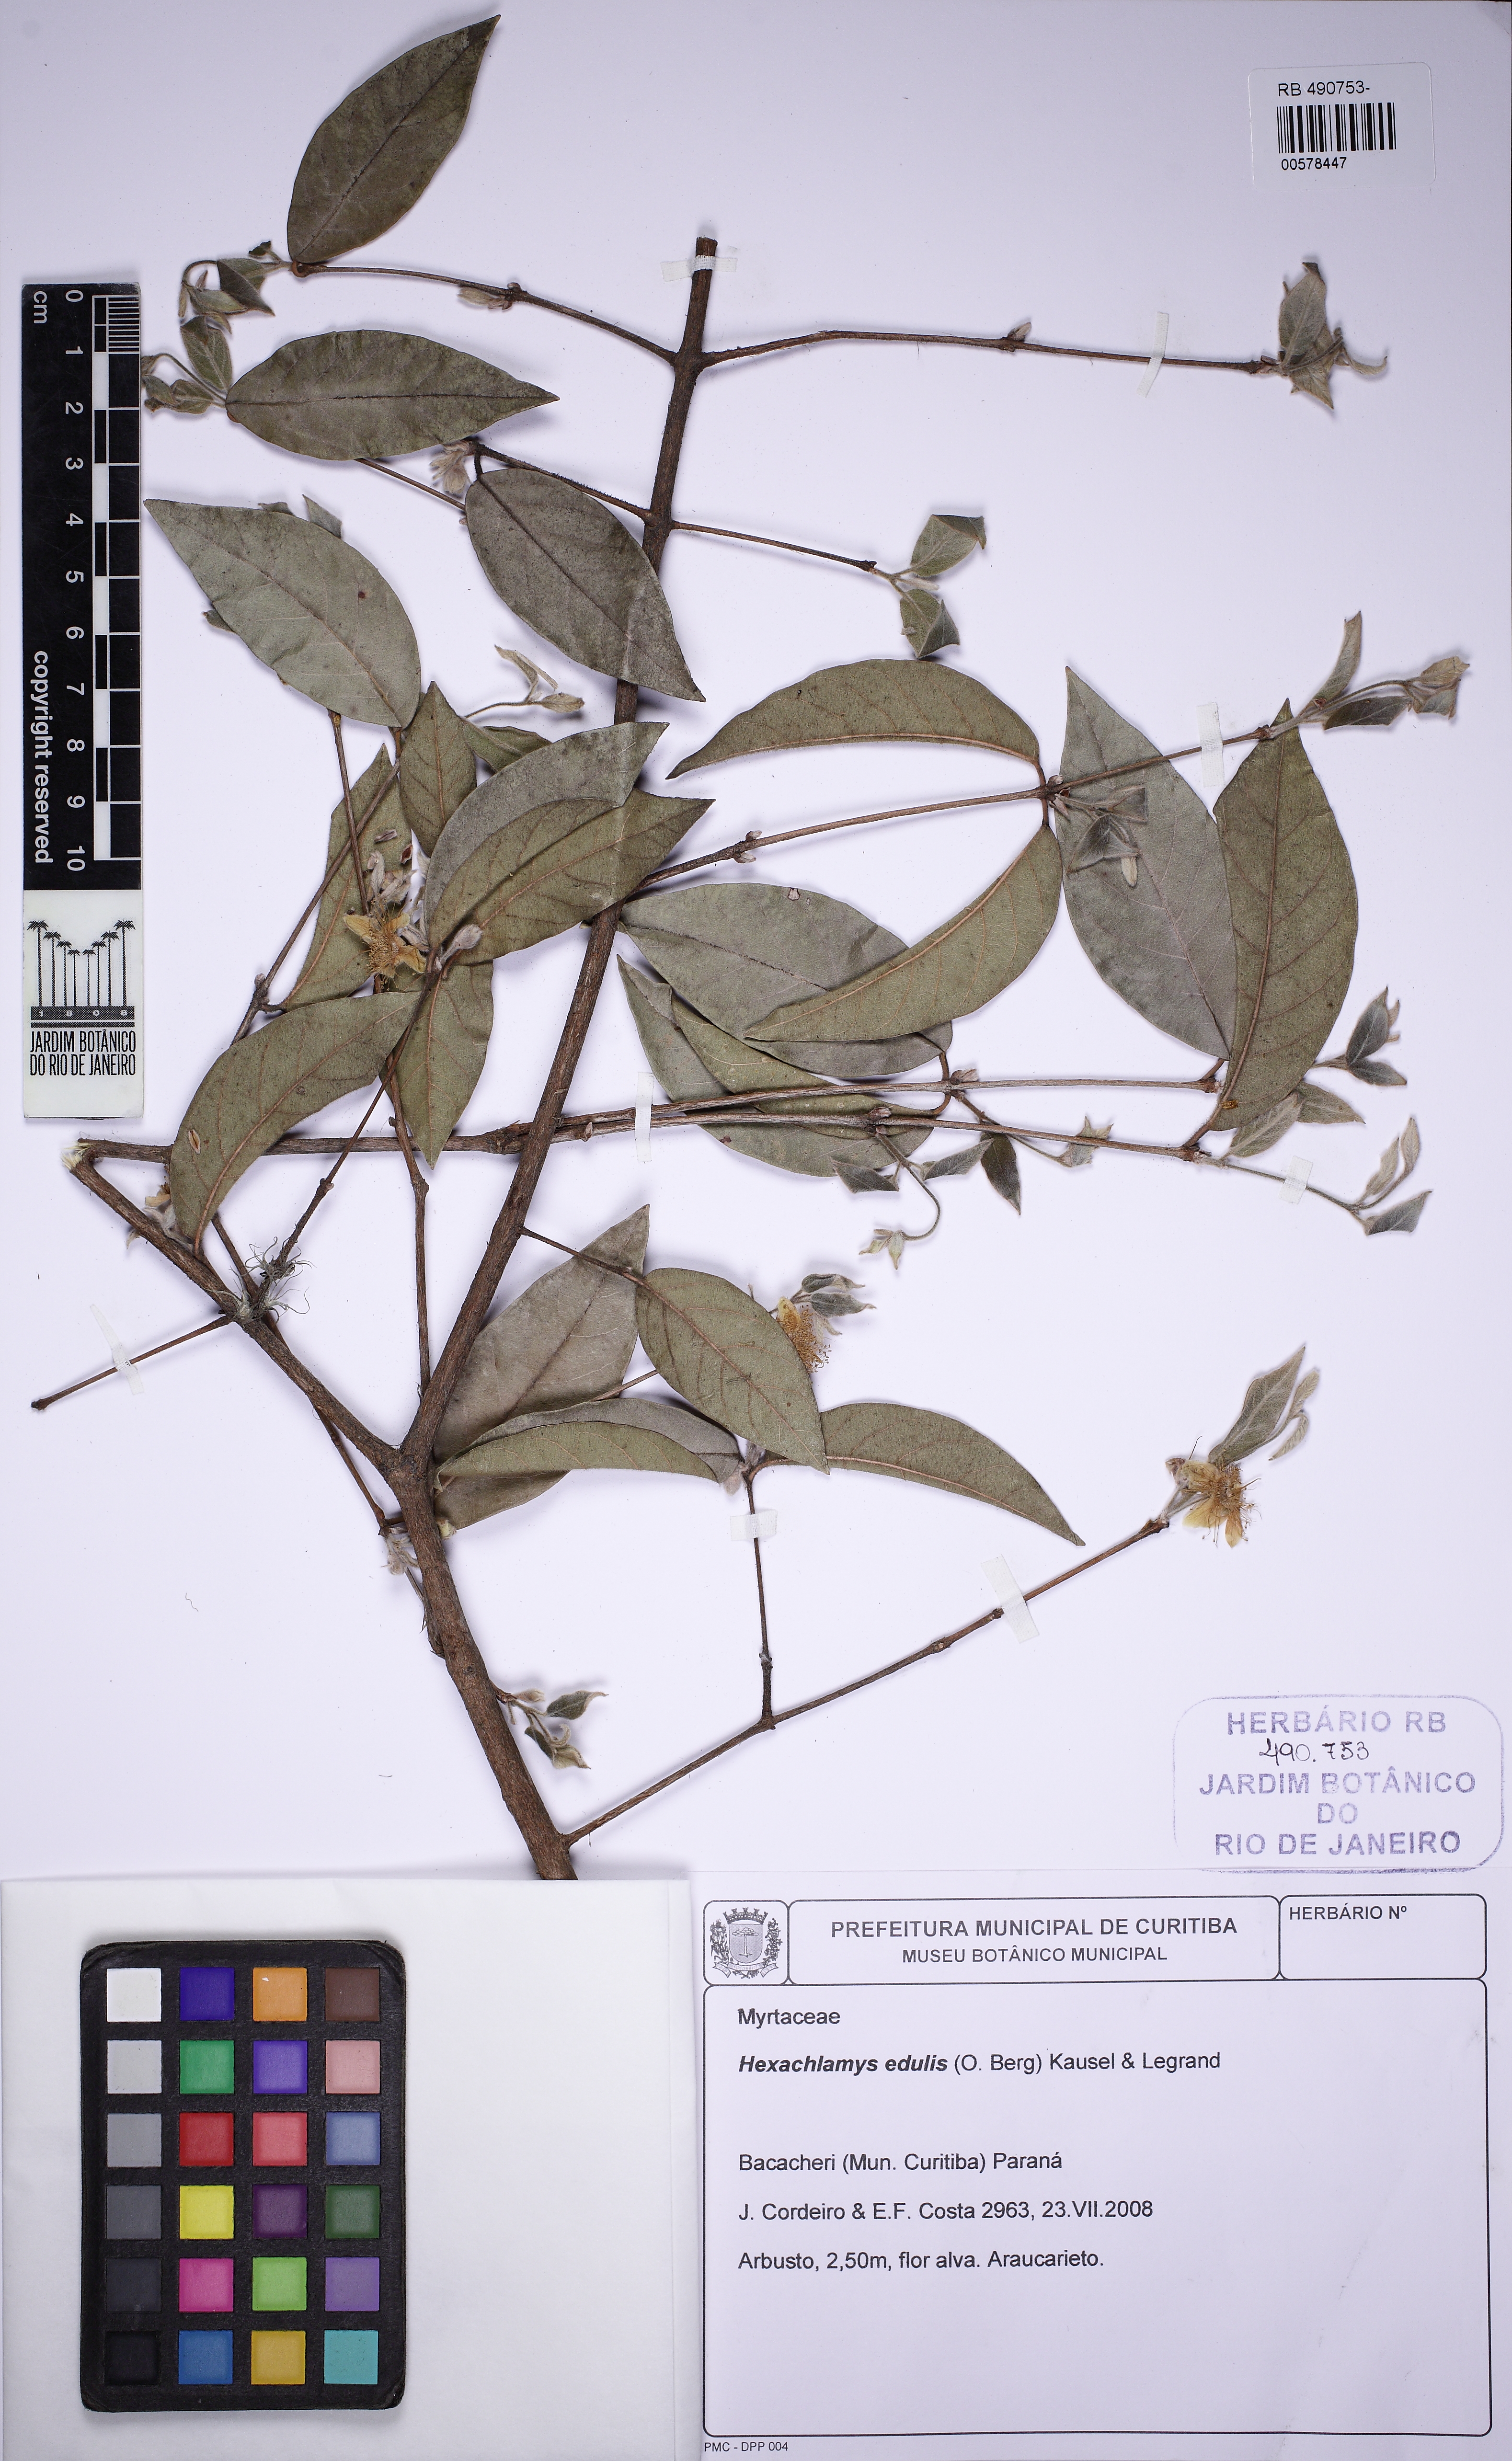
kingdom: Plantae
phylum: Tracheophyta
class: Magnoliopsida
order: Myrtales
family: Myrtaceae
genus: Eugenia
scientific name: Eugenia myrcianthes
